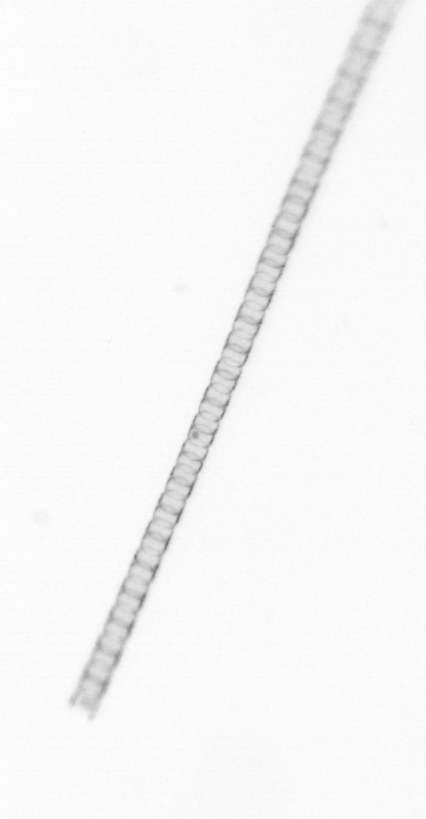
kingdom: Chromista
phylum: Ochrophyta
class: Bacillariophyceae
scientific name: Bacillariophyceae
